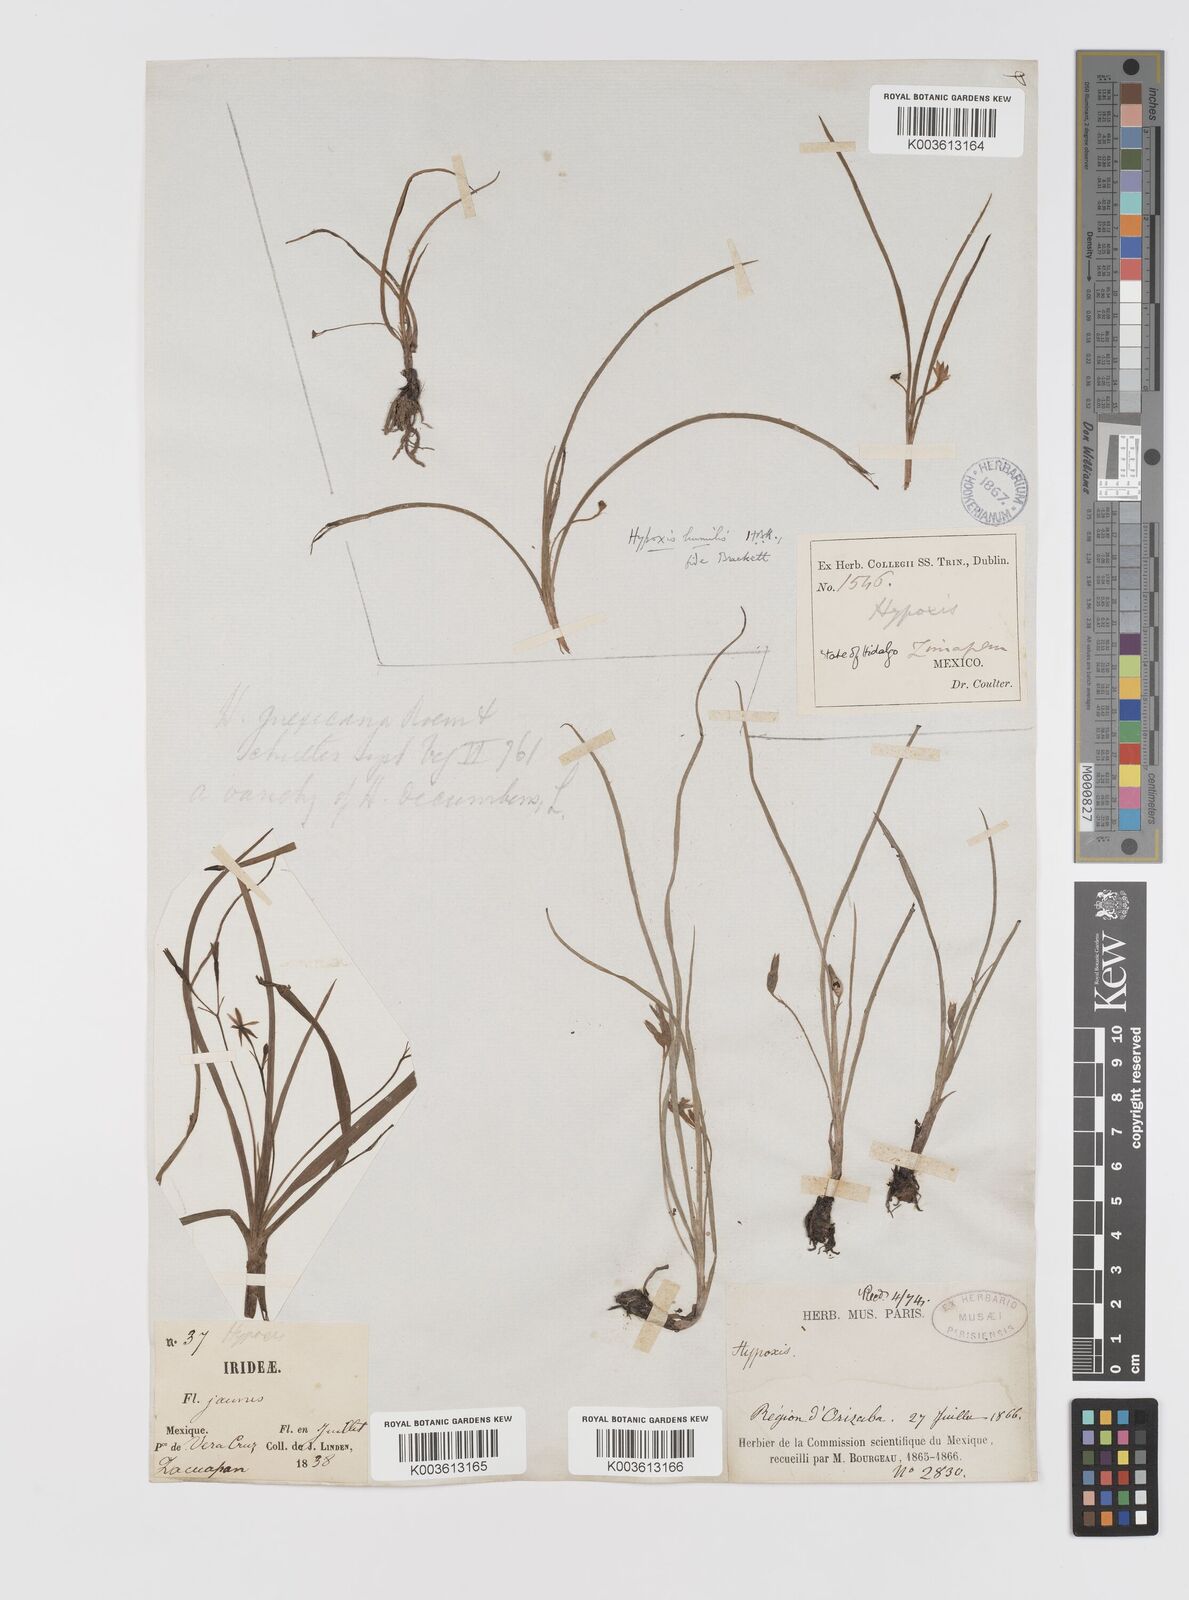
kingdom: Plantae
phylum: Tracheophyta
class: Liliopsida
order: Asparagales
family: Hypoxidaceae
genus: Hypoxis
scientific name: Hypoxis decumbens
